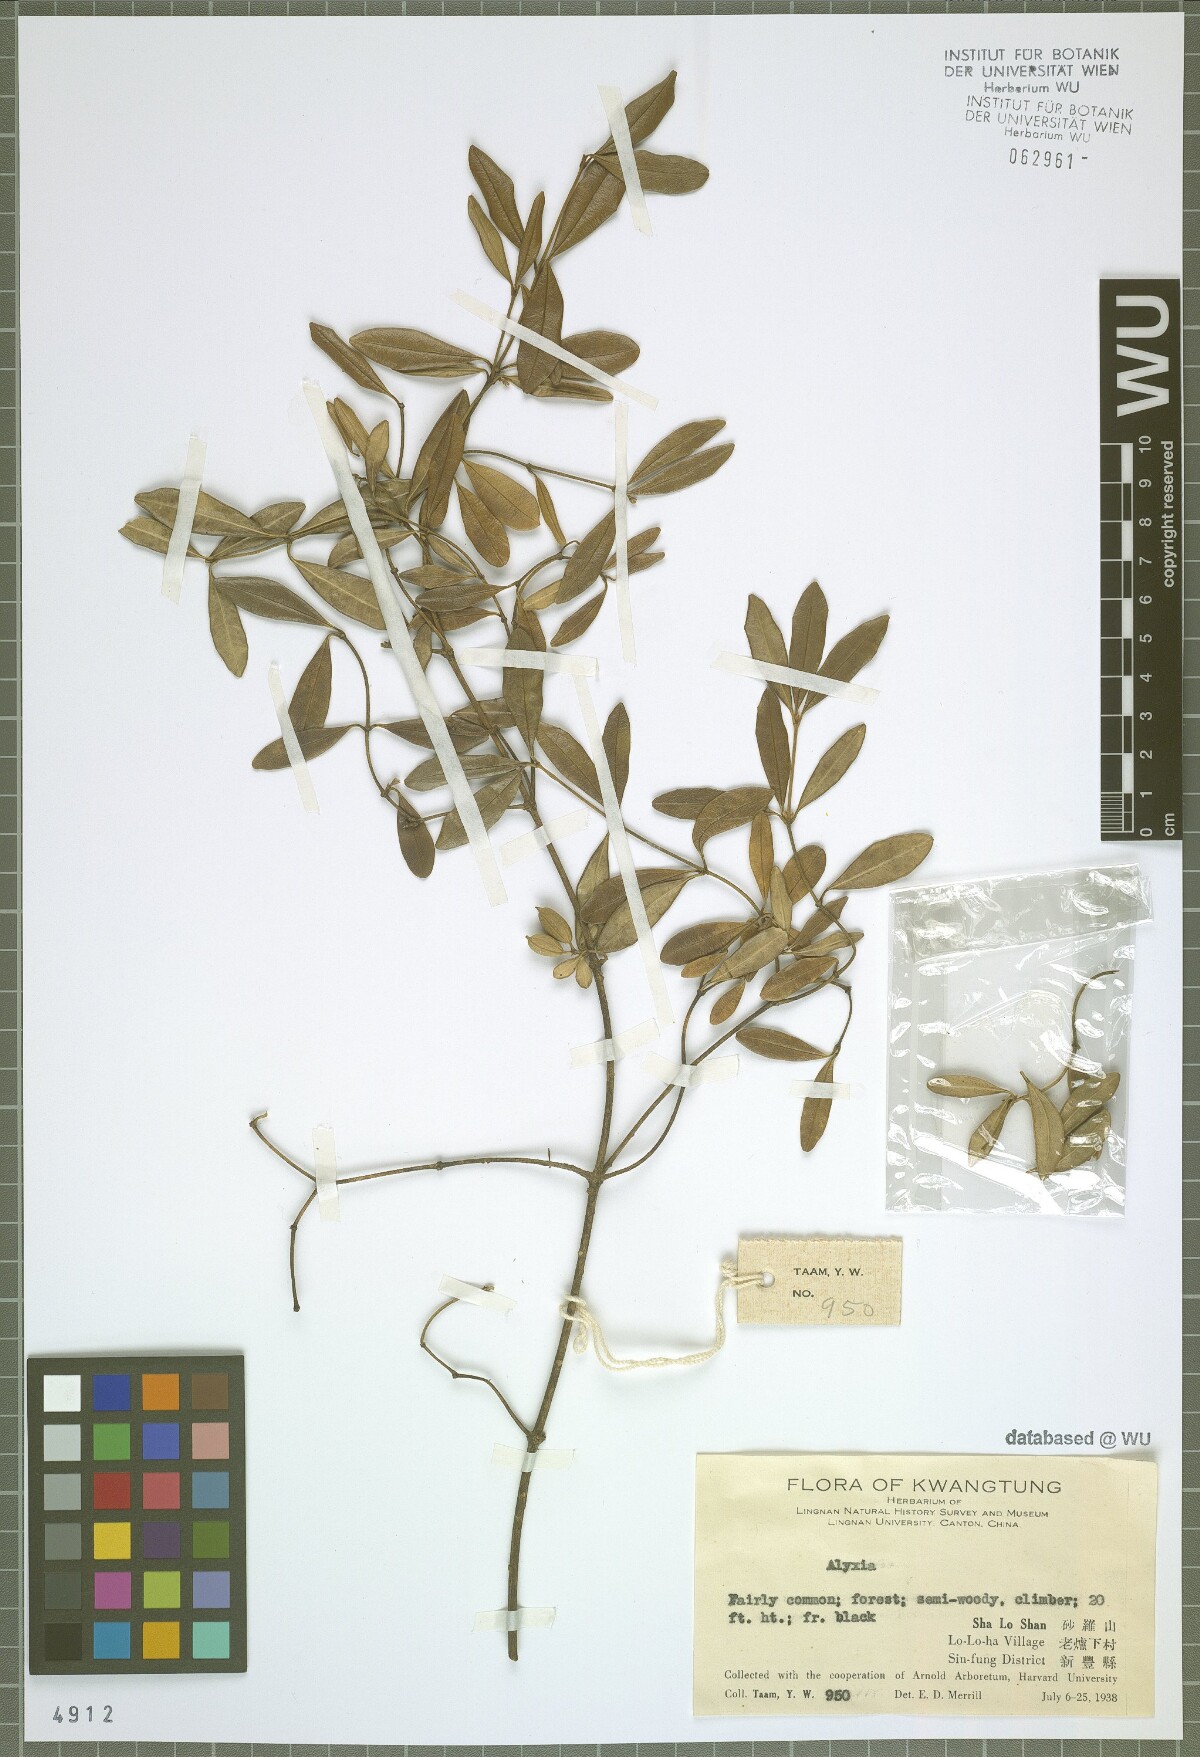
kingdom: Plantae
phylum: Tracheophyta
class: Magnoliopsida
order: Gentianales
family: Apocynaceae
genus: Alyxia
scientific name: Alyxia
